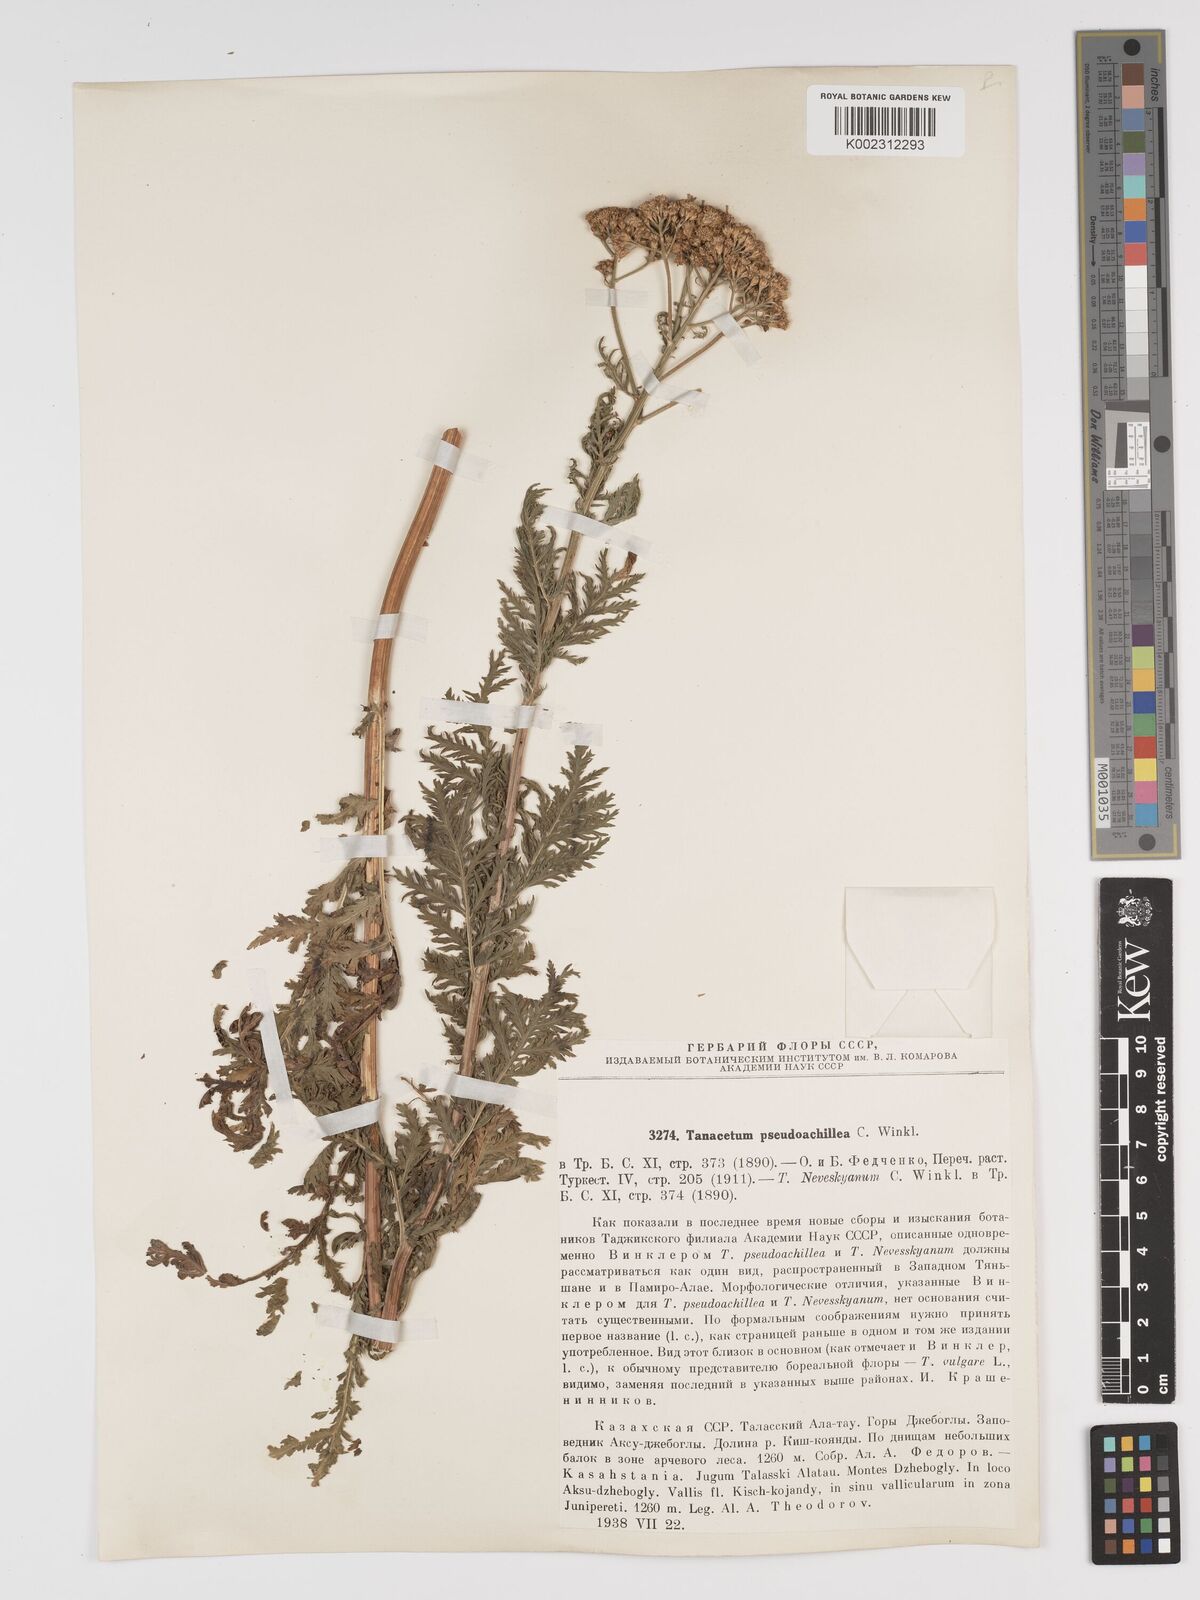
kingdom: Plantae
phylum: Tracheophyta
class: Magnoliopsida
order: Asterales
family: Asteraceae
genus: Lepidolopsis
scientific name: Lepidolopsis pseudoachillea
